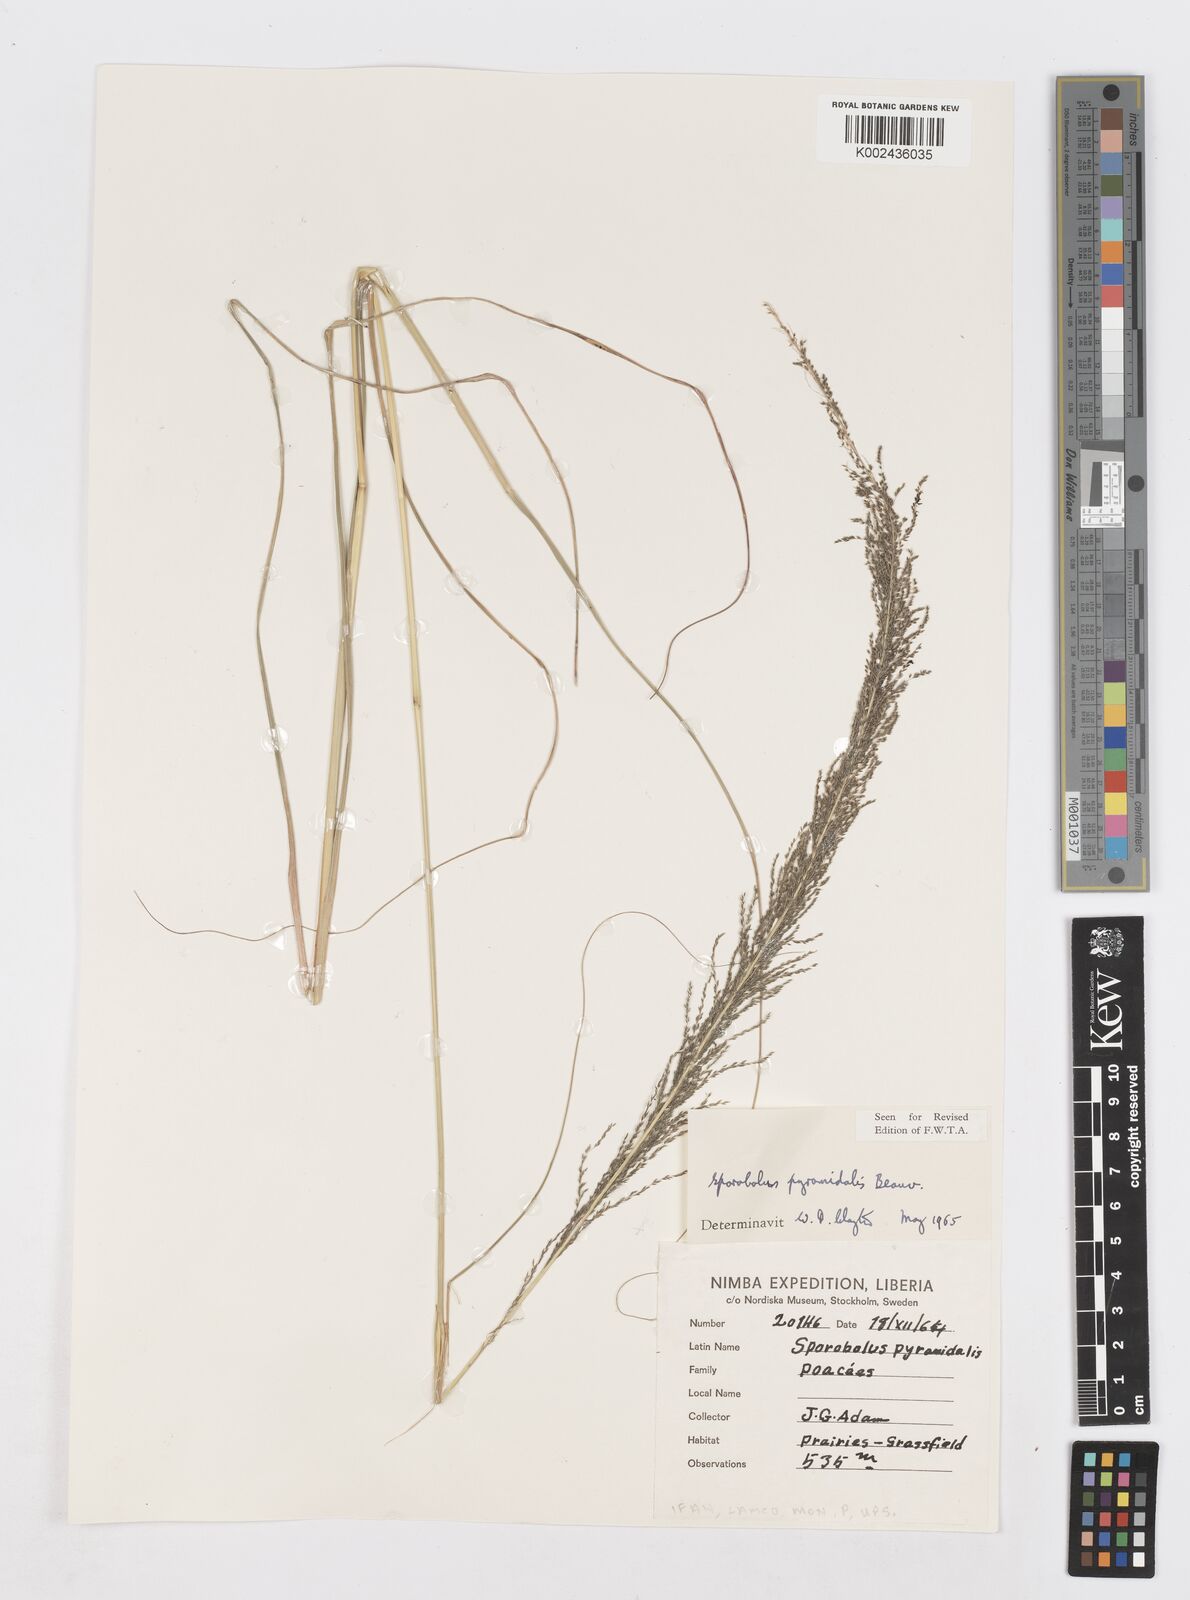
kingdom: Plantae
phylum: Tracheophyta
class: Liliopsida
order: Poales
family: Poaceae
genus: Sporobolus
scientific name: Sporobolus pyramidalis
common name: West indian dropseed
